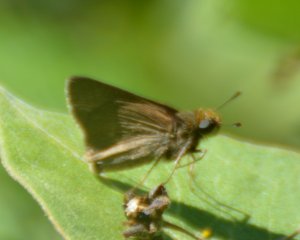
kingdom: Animalia
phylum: Arthropoda
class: Insecta
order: Lepidoptera
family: Hesperiidae
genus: Euphyes
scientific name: Euphyes vestris
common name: Dun Skipper
